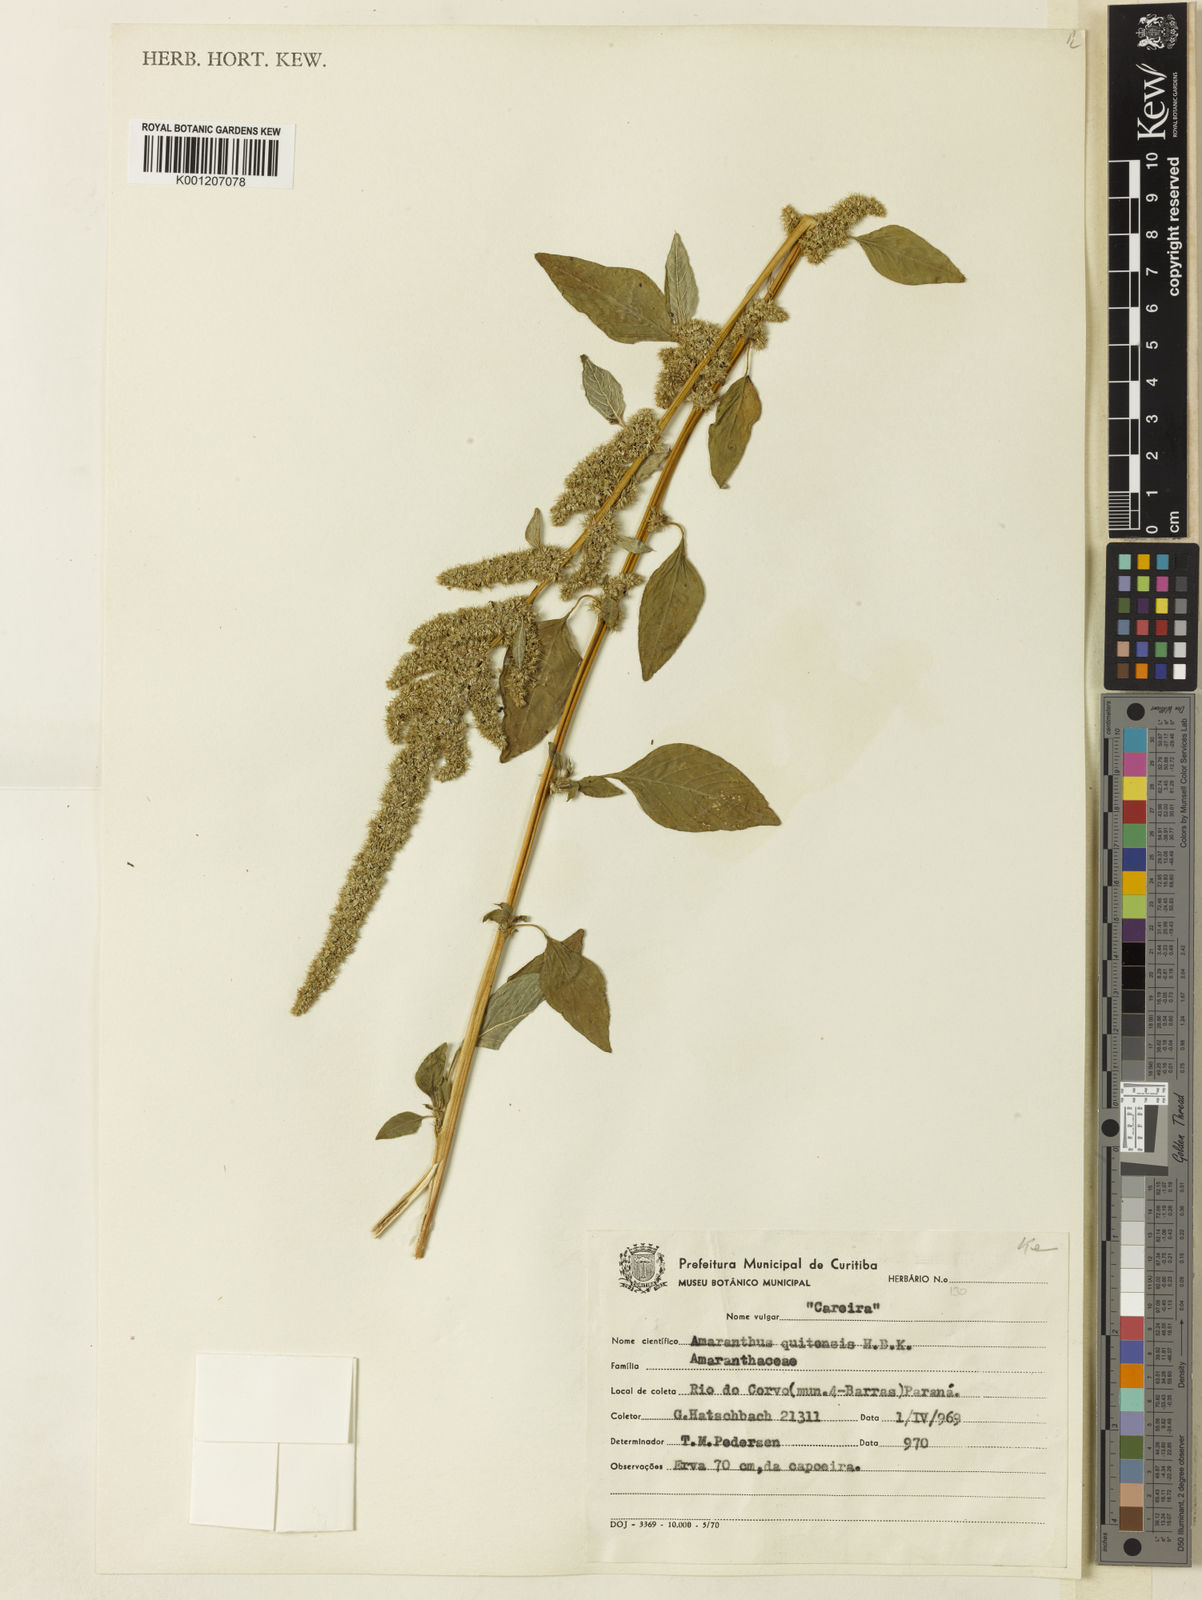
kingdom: Plantae
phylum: Tracheophyta
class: Magnoliopsida
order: Caryophyllales
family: Amaranthaceae
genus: Amaranthus
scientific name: Amaranthus quitensis
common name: Mucronate amaranth
